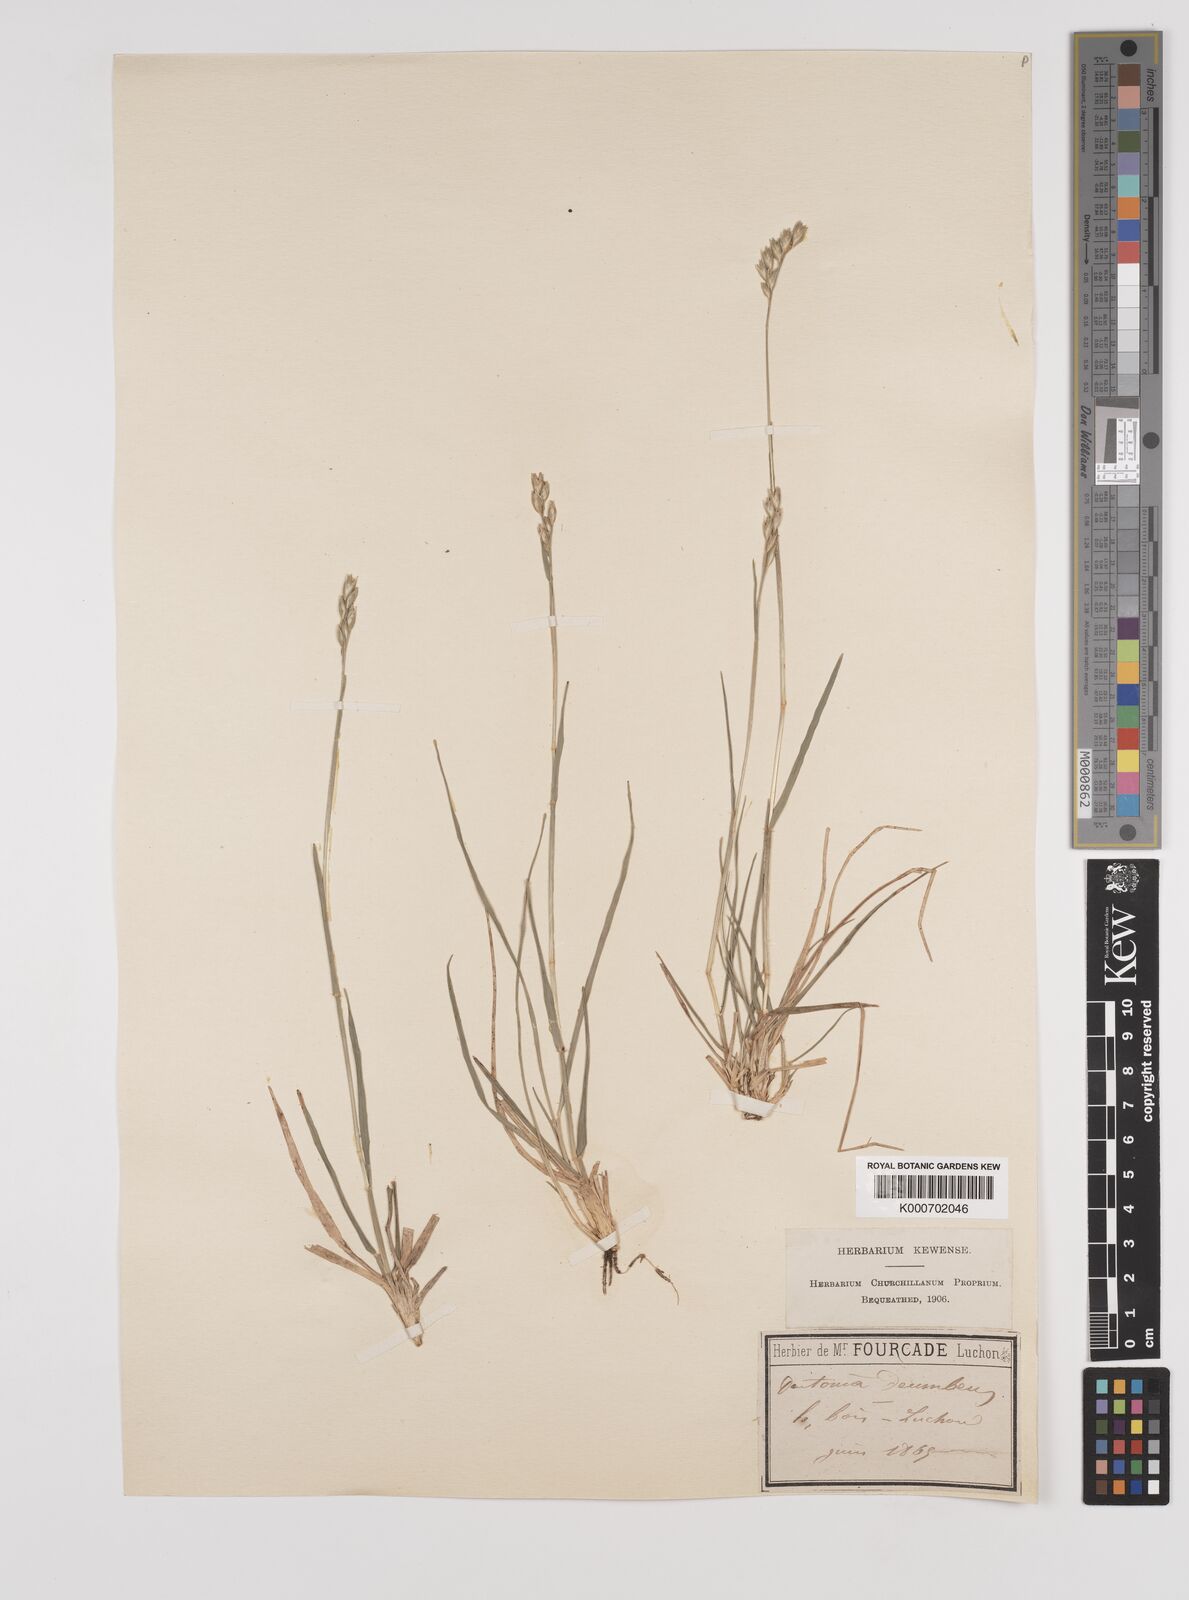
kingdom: Plantae
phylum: Tracheophyta
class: Liliopsida
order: Poales
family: Poaceae
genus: Danthonia
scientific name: Danthonia decumbens
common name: Common heathgrass
